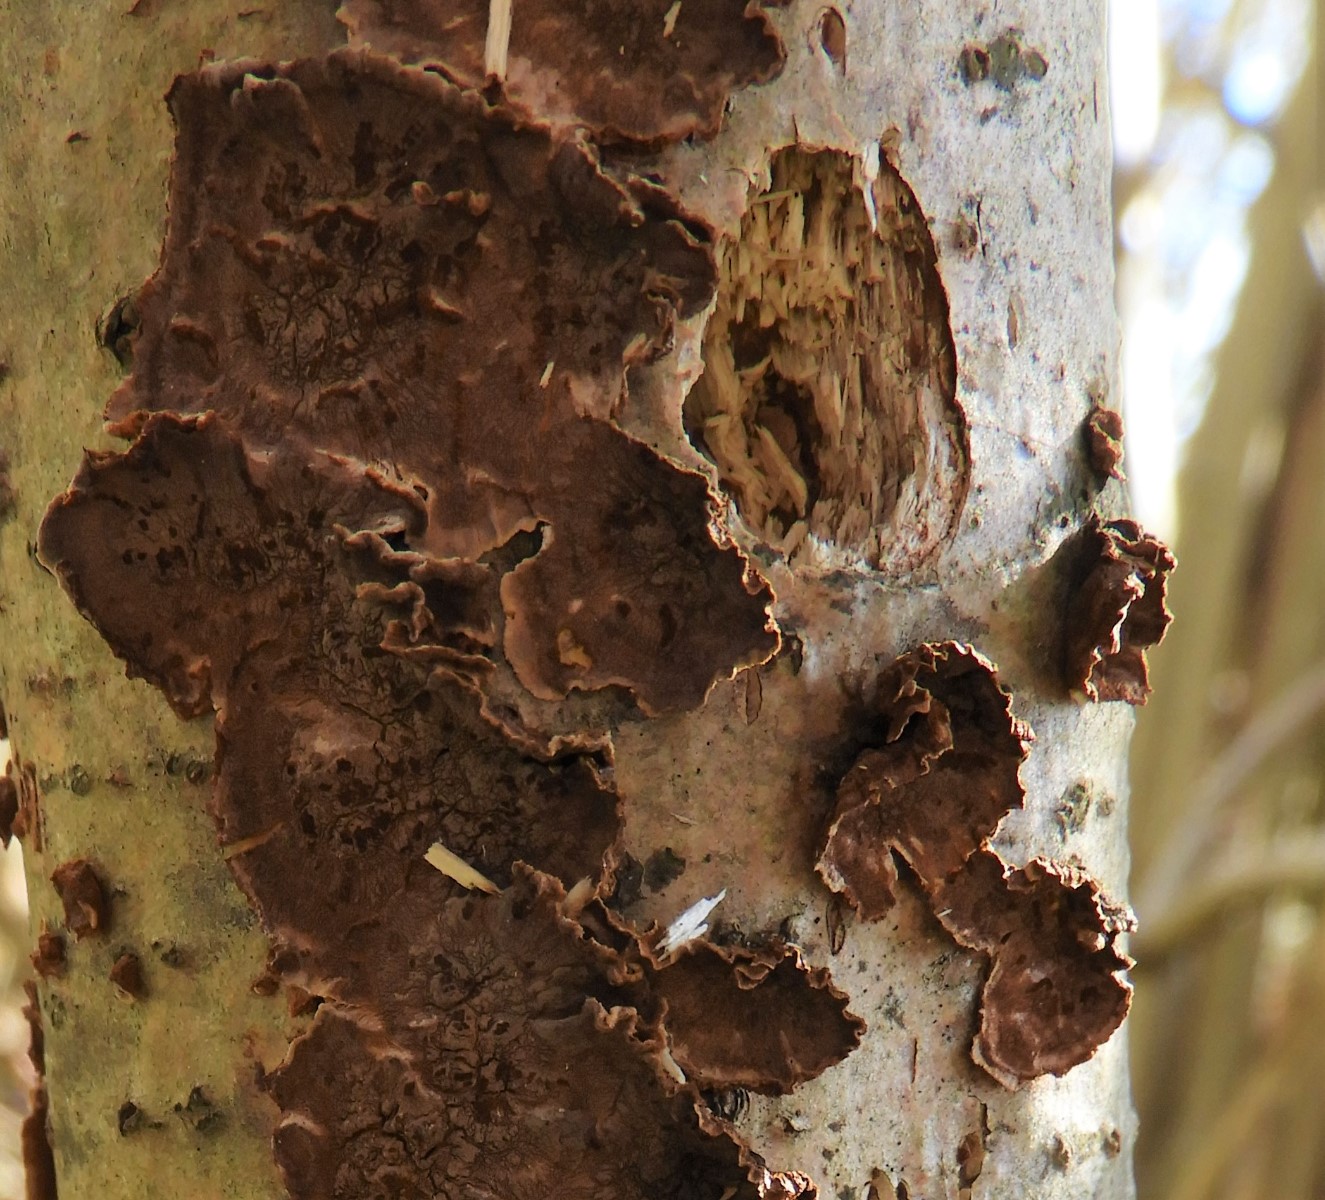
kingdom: Fungi
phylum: Basidiomycota
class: Agaricomycetes
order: Hymenochaetales
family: Hymenochaetaceae
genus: Hydnoporia
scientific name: Hydnoporia tabacina
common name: tobaksbrun ruslædersvamp
